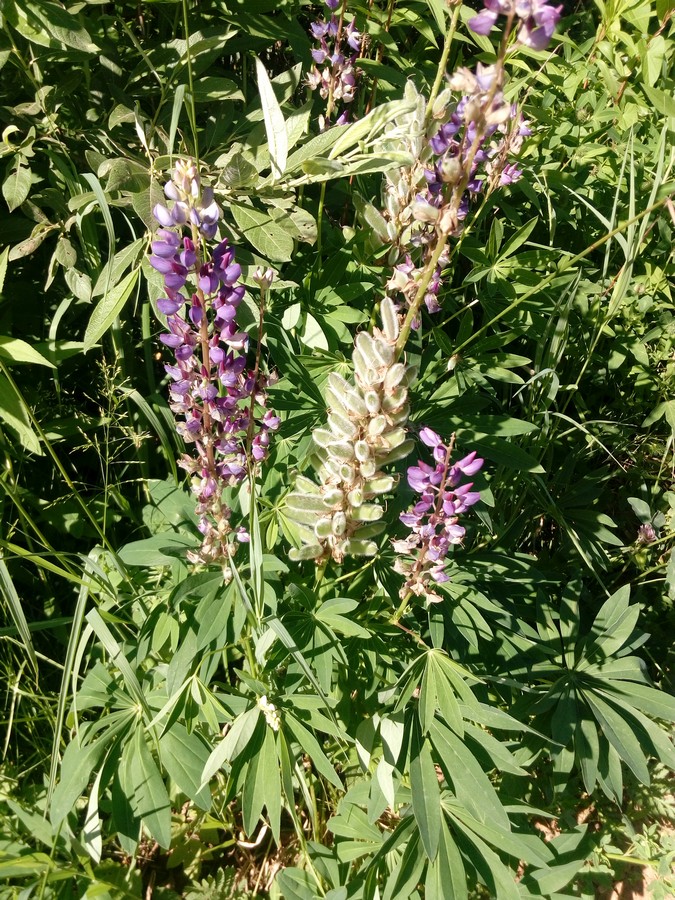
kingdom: Plantae
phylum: Tracheophyta
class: Magnoliopsida
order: Fabales
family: Fabaceae
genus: Lupinus
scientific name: Lupinus polyphyllus
